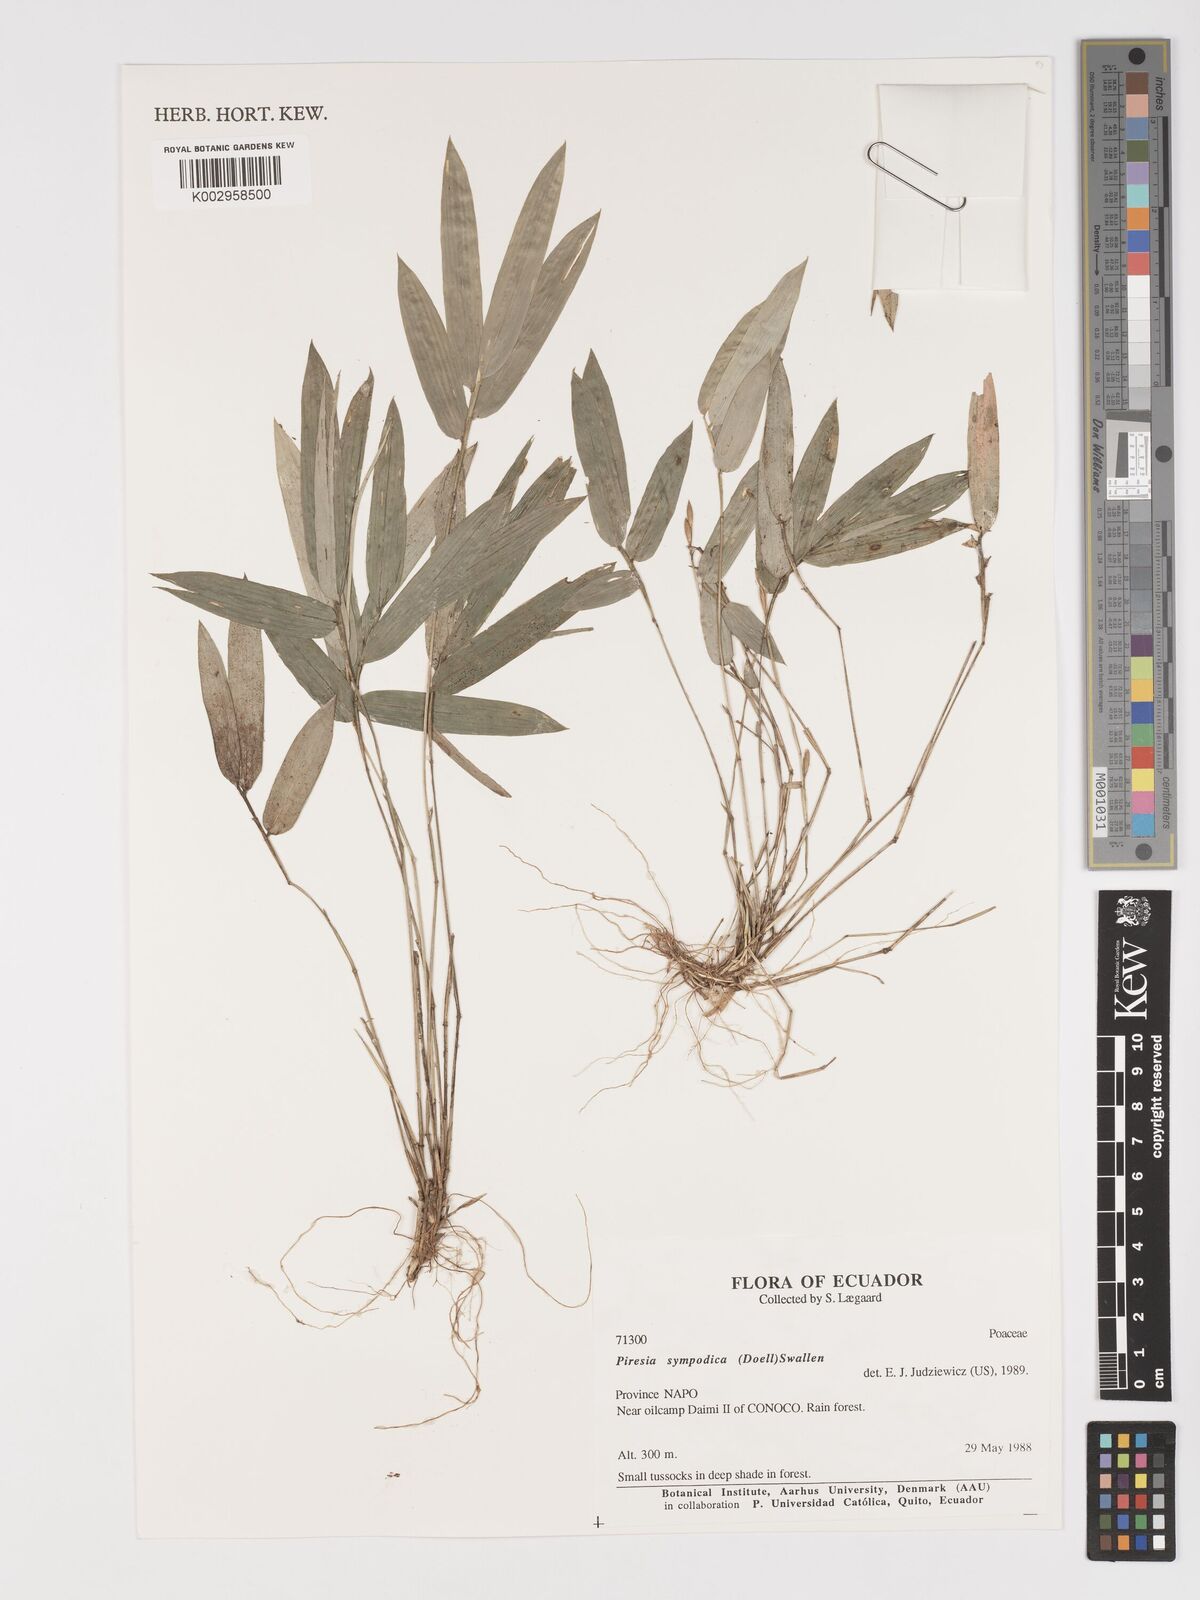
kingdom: Plantae
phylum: Tracheophyta
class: Liliopsida
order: Poales
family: Poaceae
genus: Piresia
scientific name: Piresia sympodica
